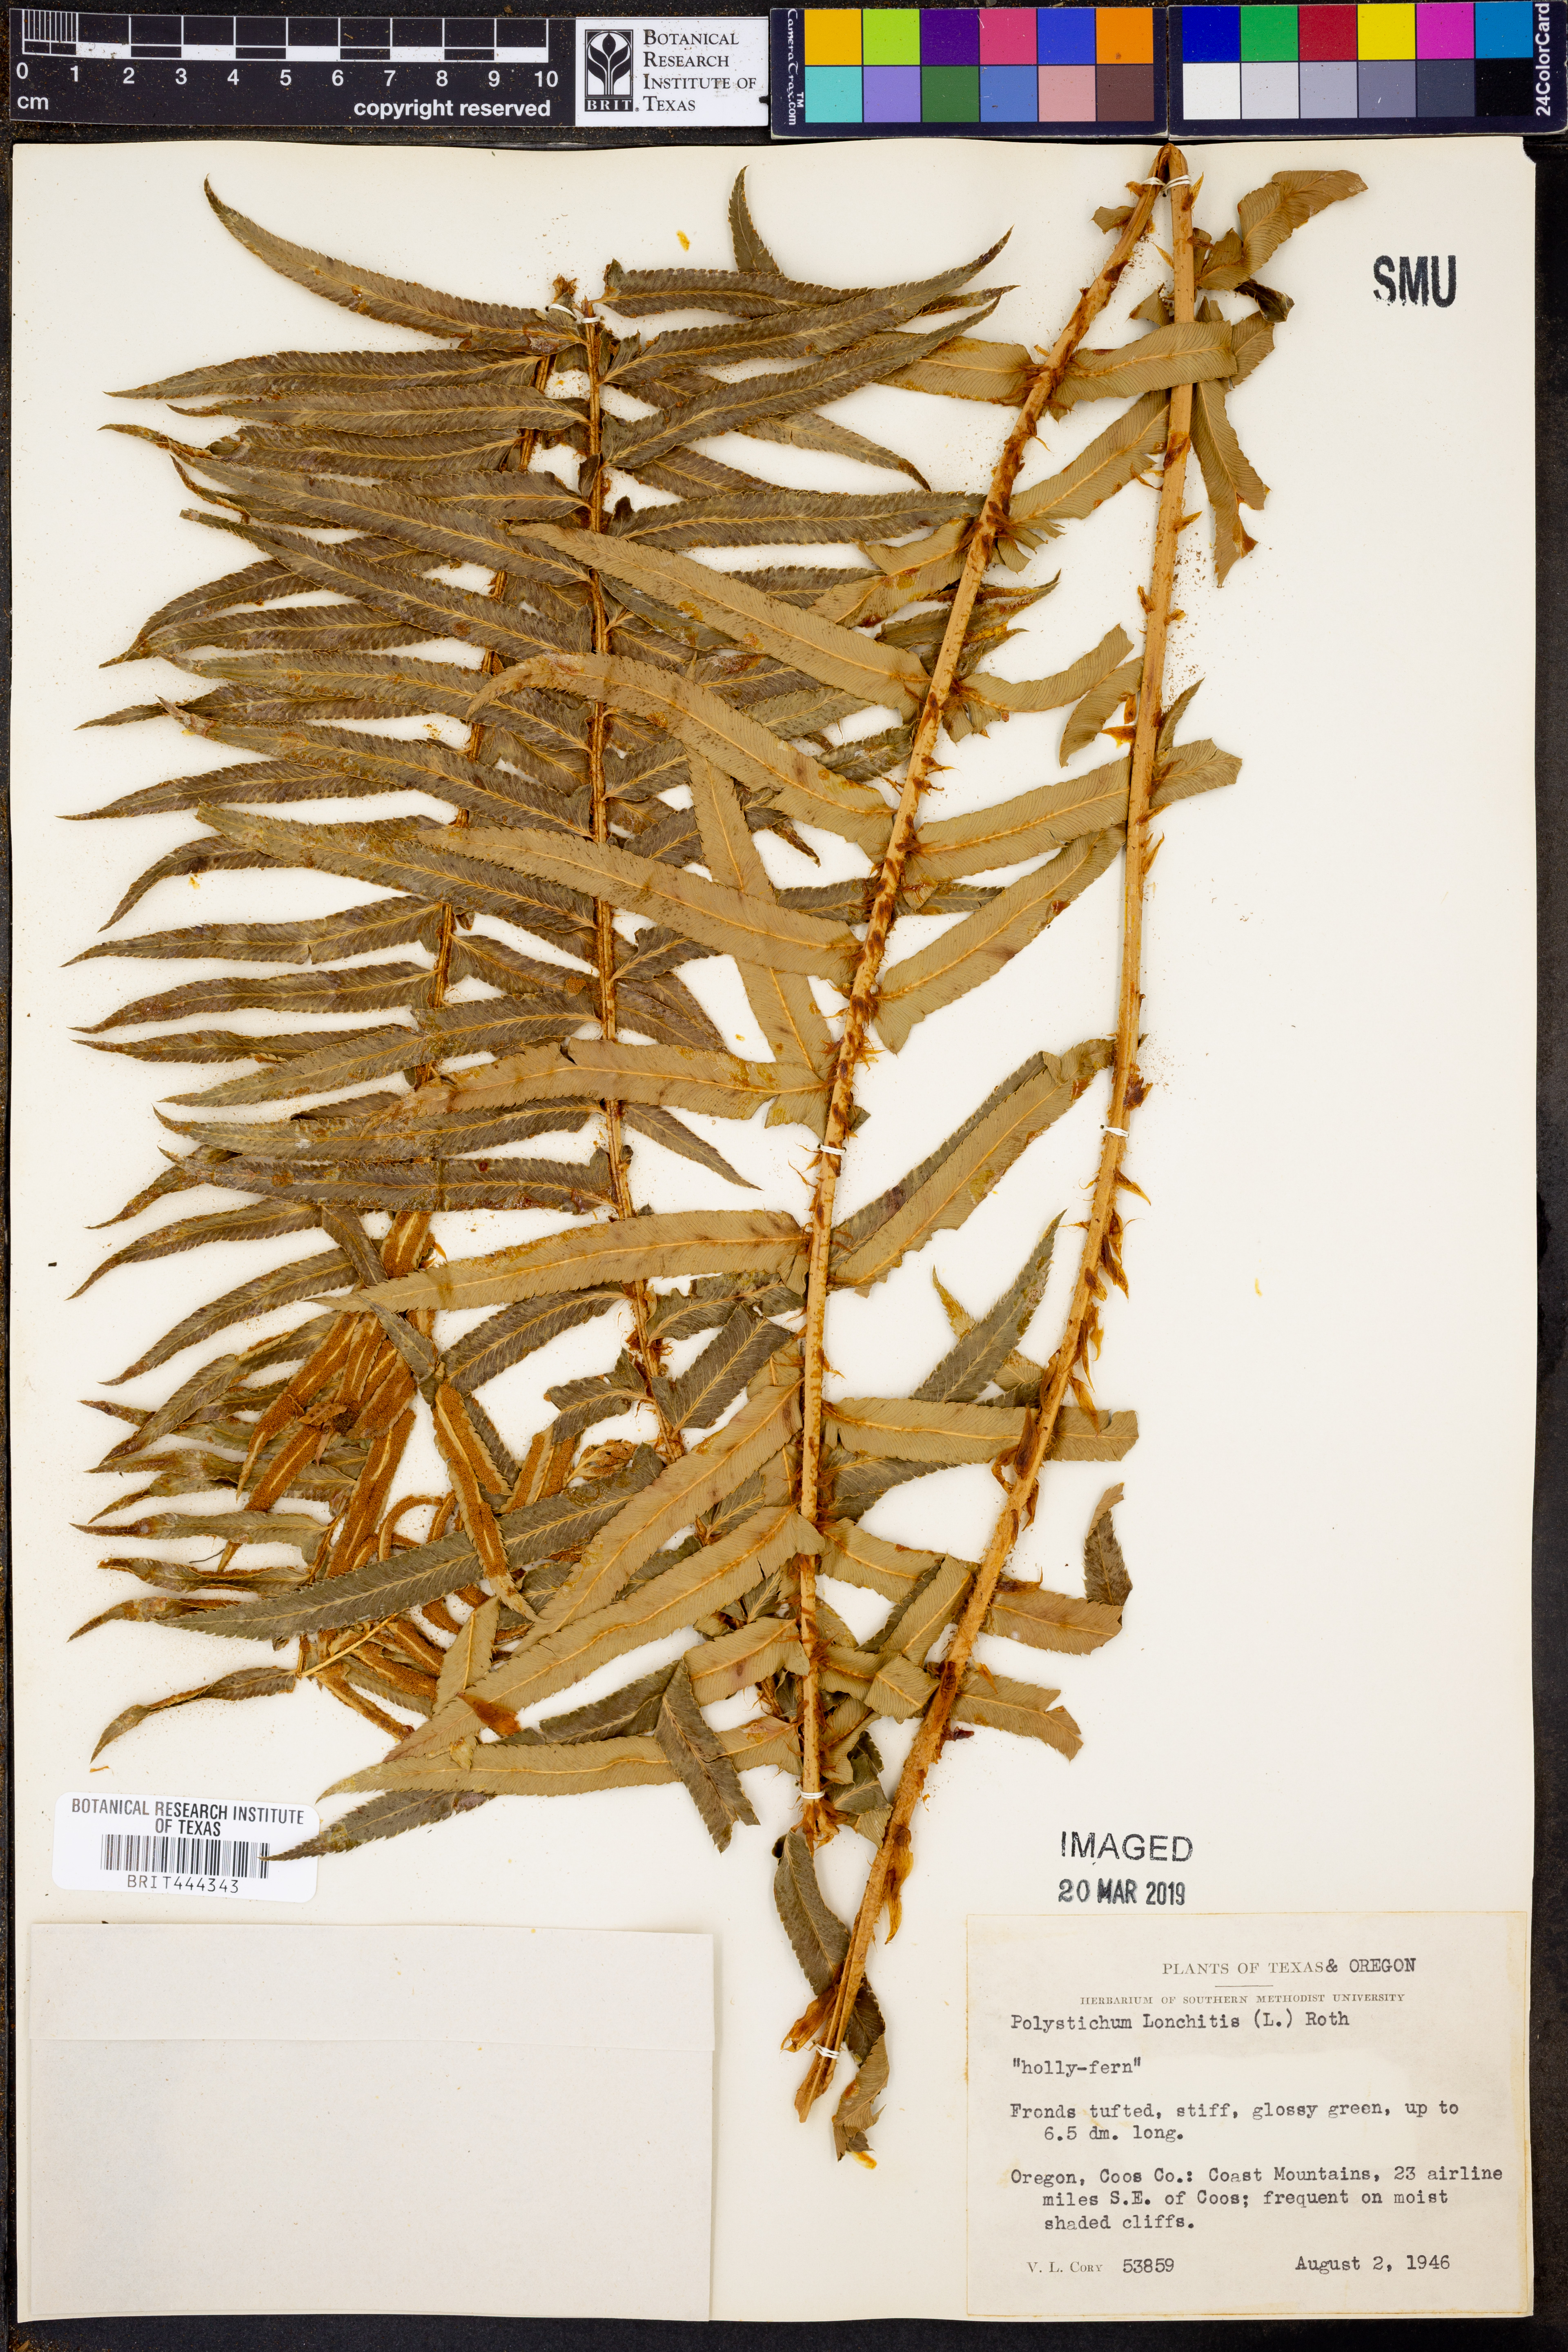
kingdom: Plantae
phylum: Tracheophyta
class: Polypodiopsida
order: Polypodiales
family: Dryopteridaceae
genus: Polystichum
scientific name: Polystichum lonchitis
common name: Holly fern
